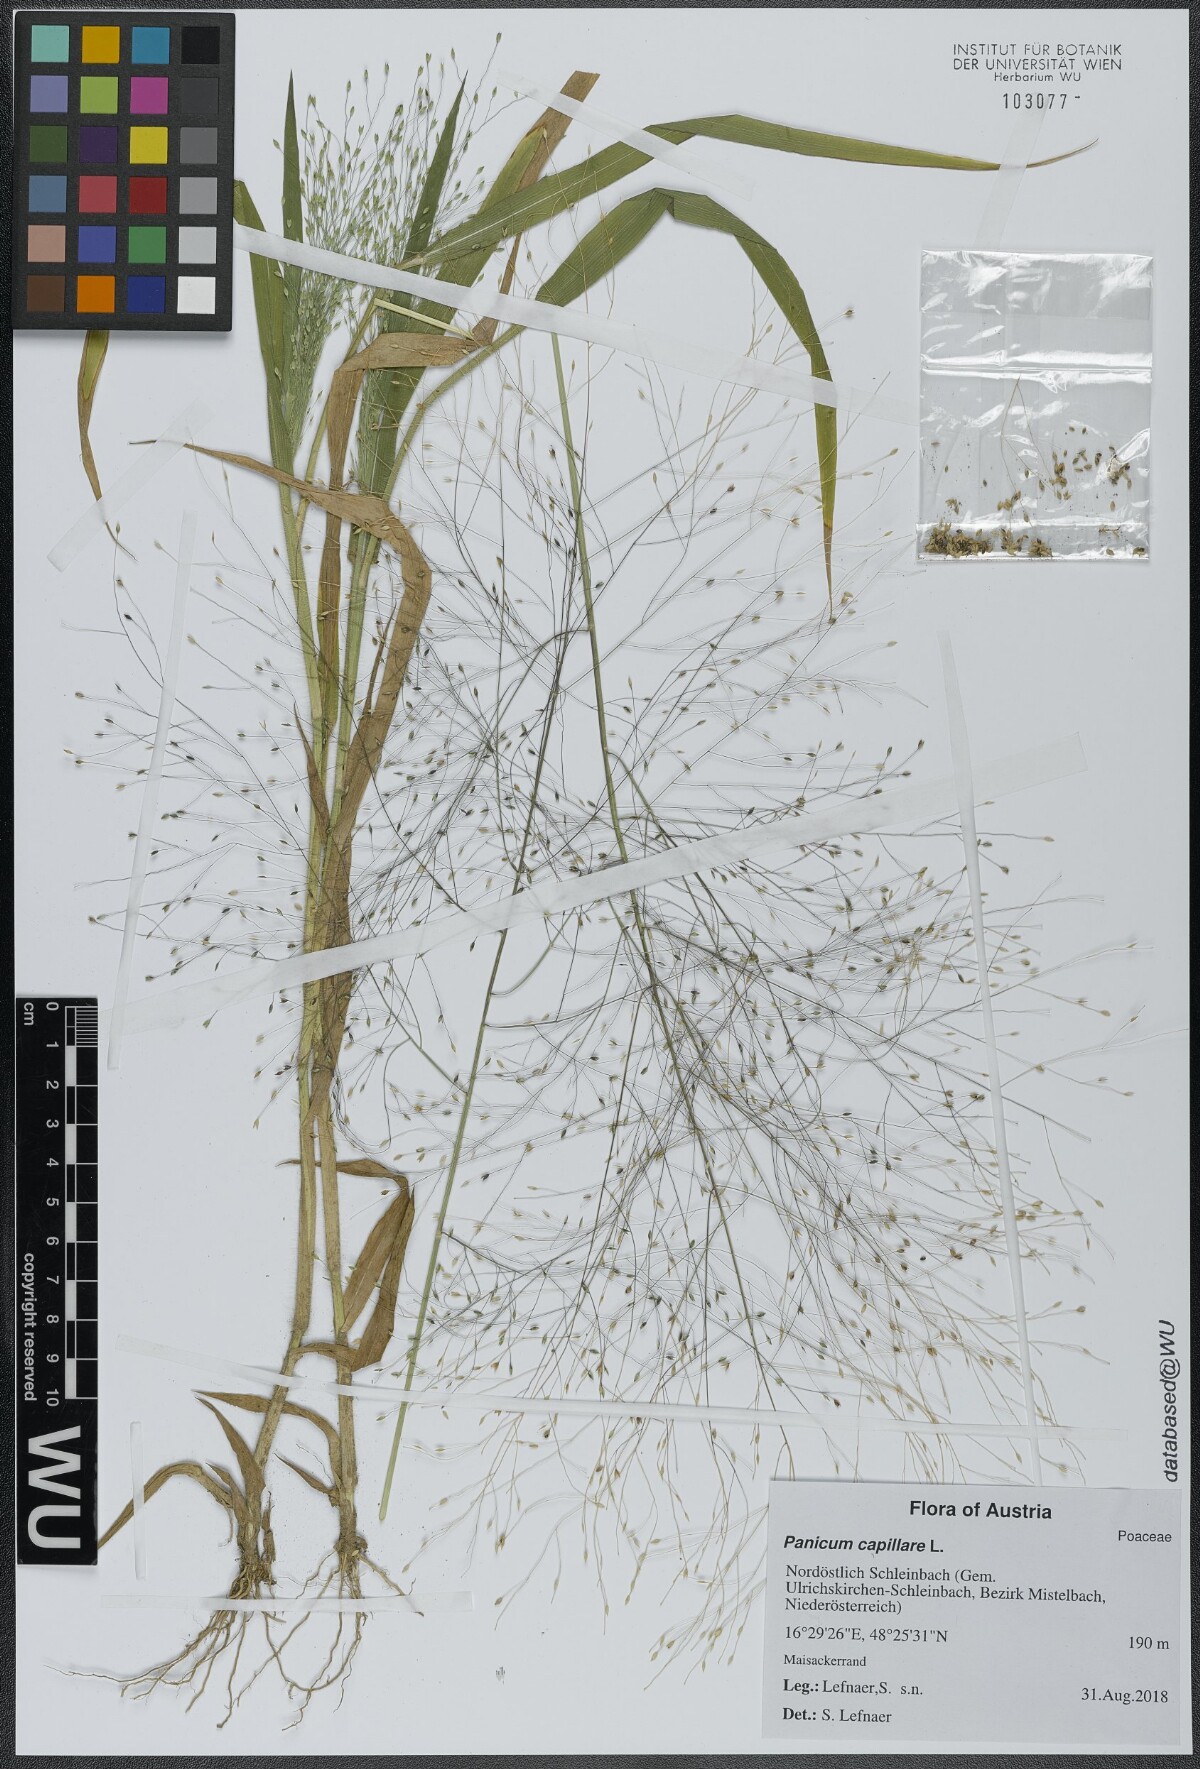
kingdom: Plantae
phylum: Tracheophyta
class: Liliopsida
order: Poales
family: Poaceae
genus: Panicum
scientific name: Panicum capillare
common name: Witch-grass
